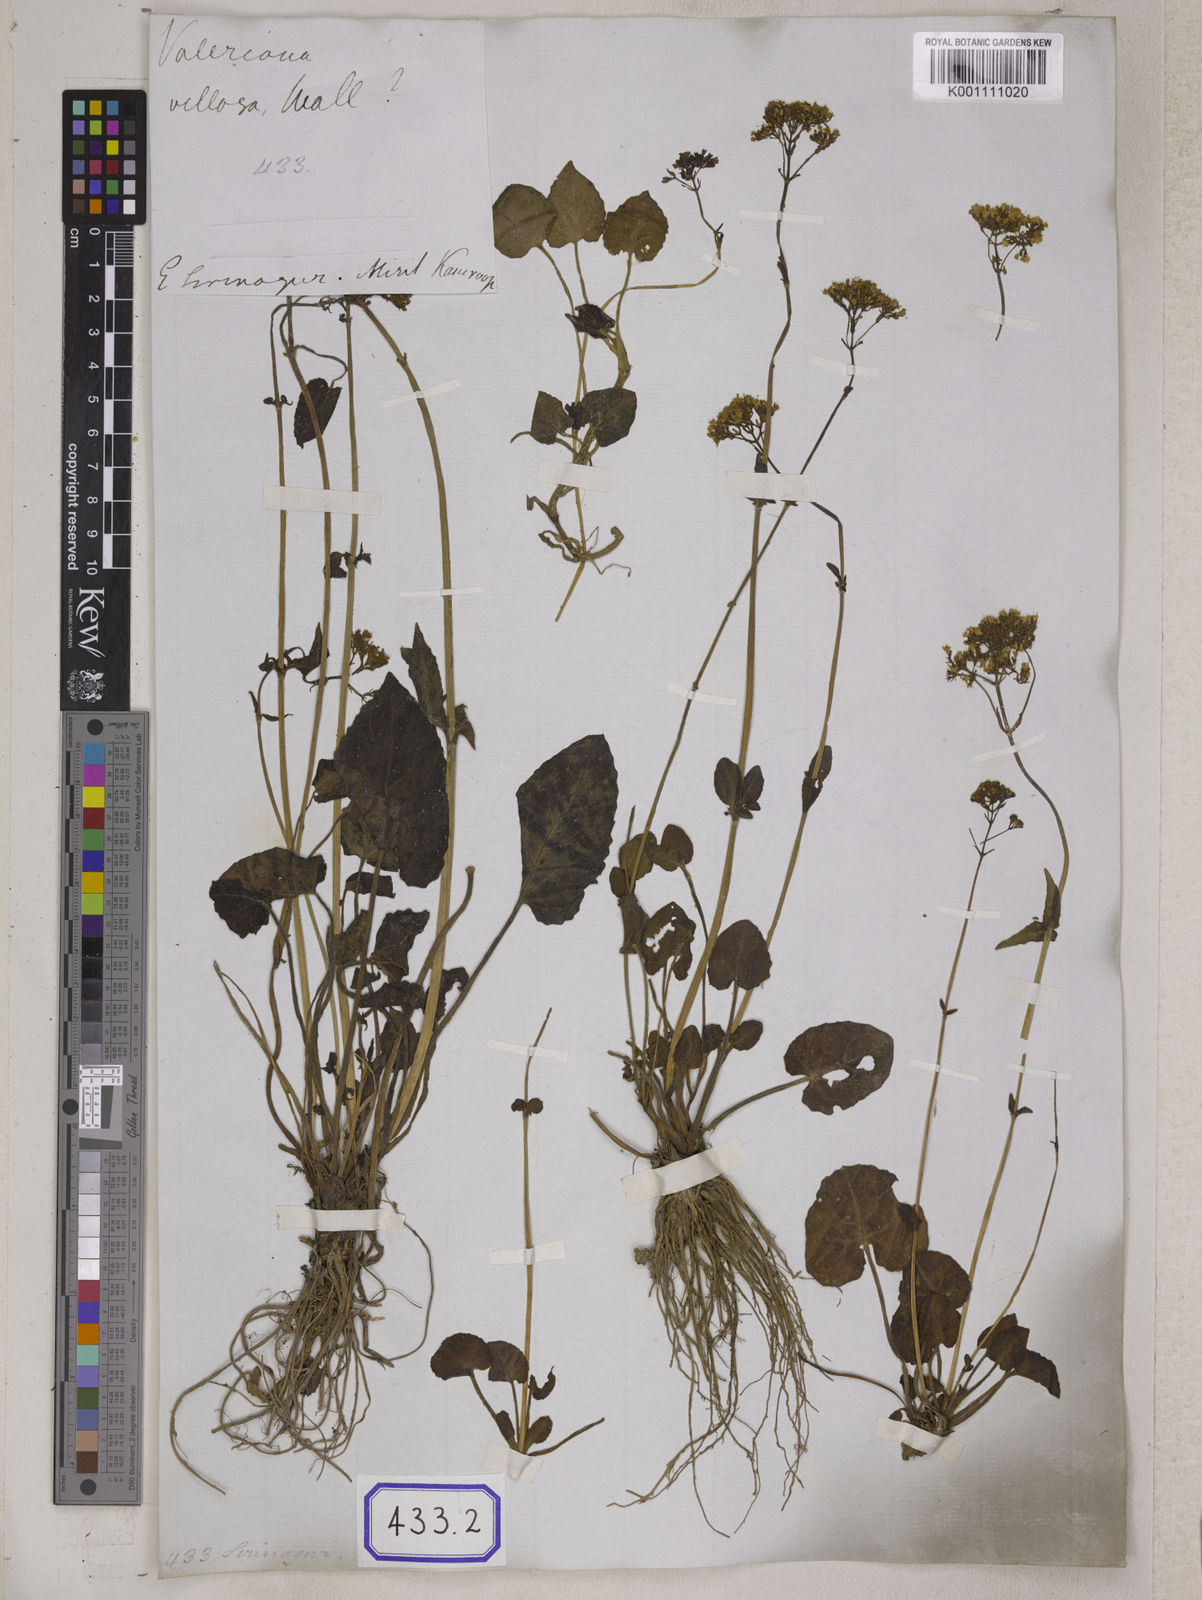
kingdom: Plantae
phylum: Tracheophyta
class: Magnoliopsida
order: Dipsacales
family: Caprifoliaceae
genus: Valeriana
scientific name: Valeriana
